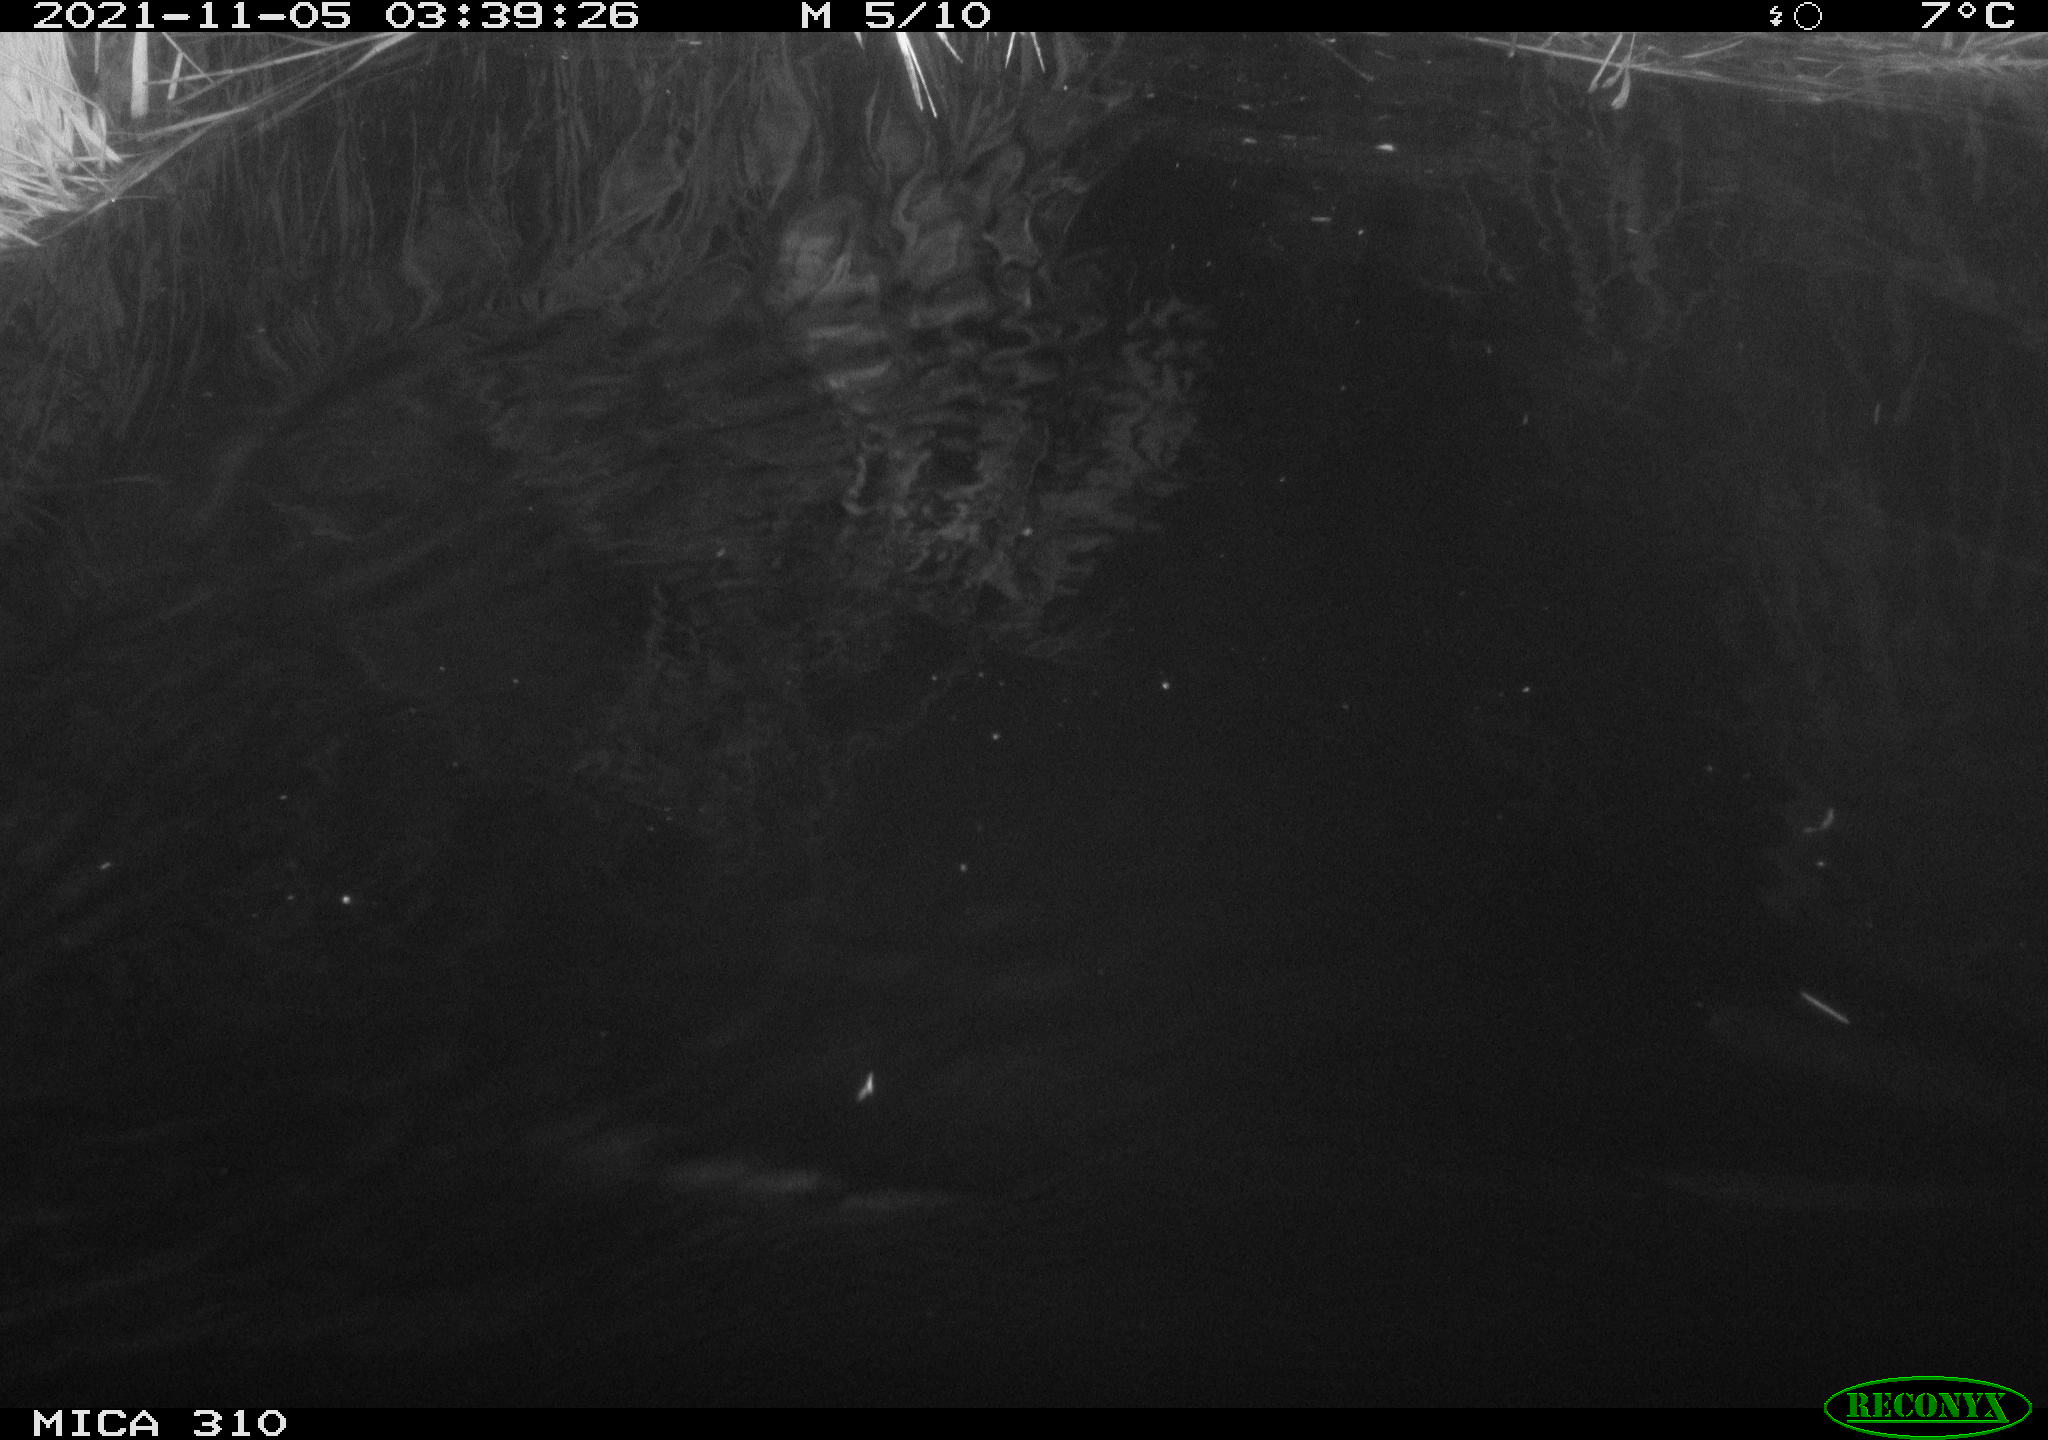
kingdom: Animalia
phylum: Chordata
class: Mammalia
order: Rodentia
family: Cricetidae
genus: Ondatra
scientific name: Ondatra zibethicus
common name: Muskrat
